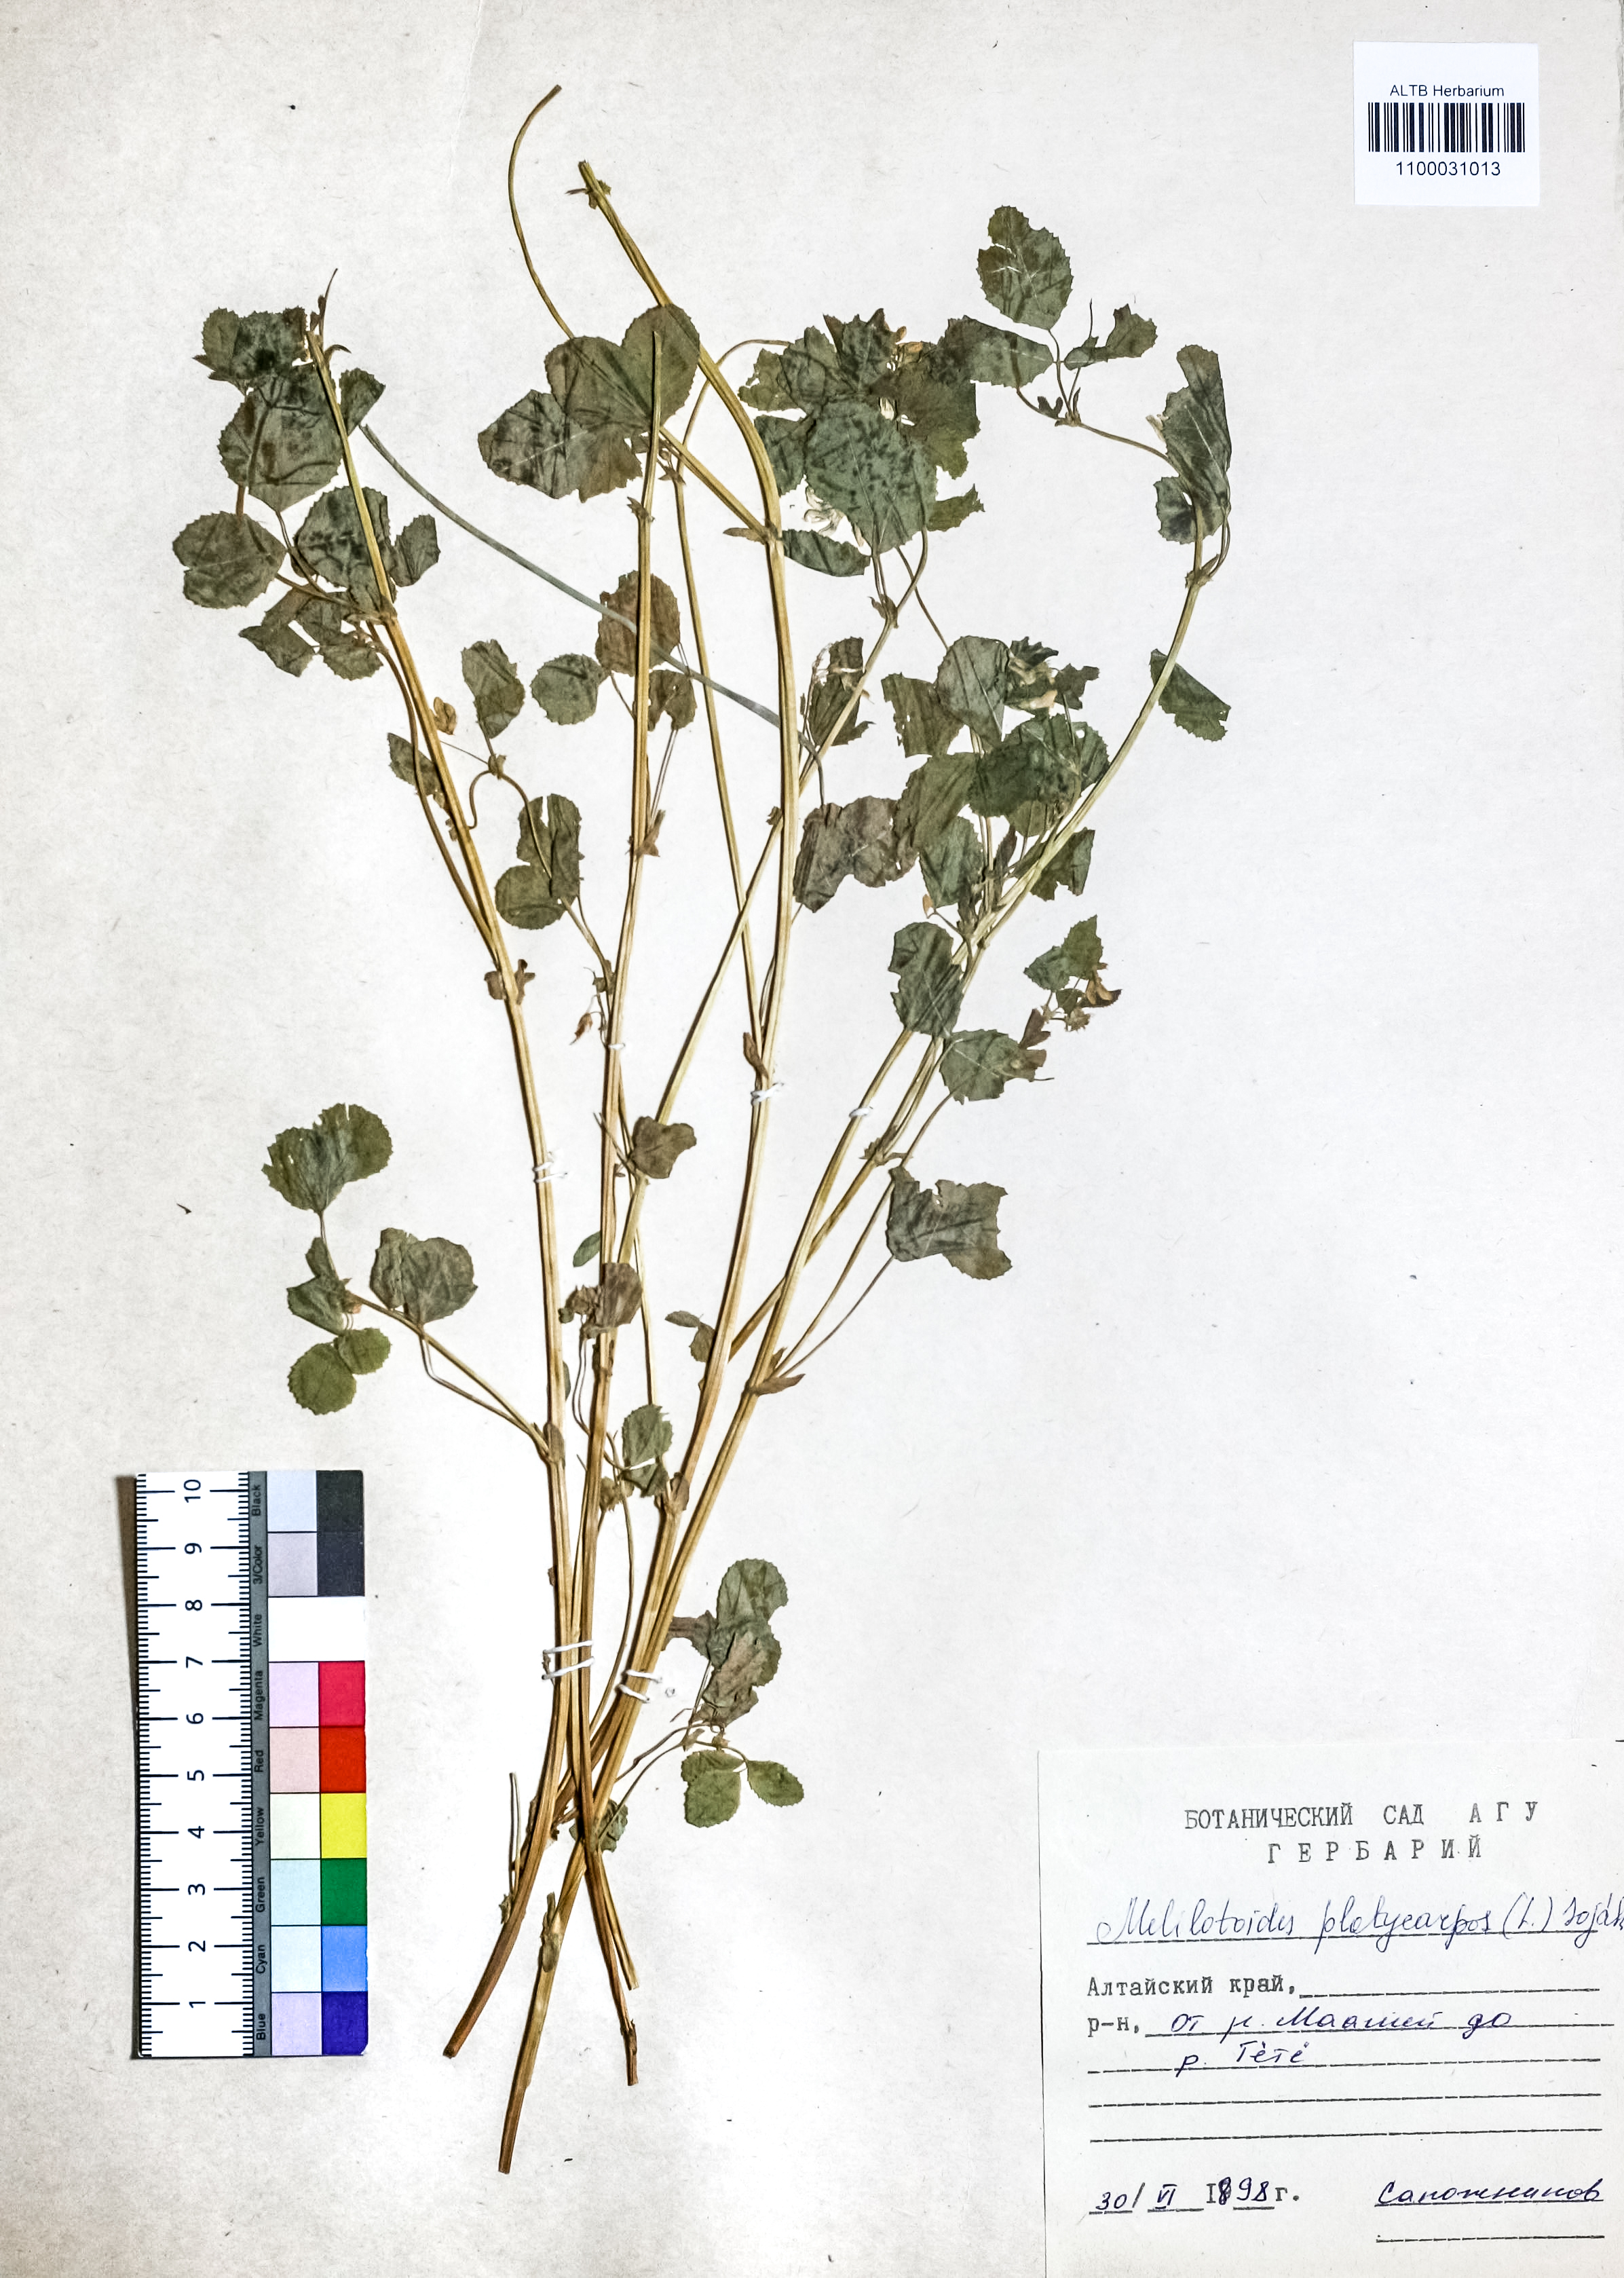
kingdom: Plantae
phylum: Tracheophyta
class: Magnoliopsida
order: Fabales
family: Fabaceae
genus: Medicago
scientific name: Medicago platycarpos
